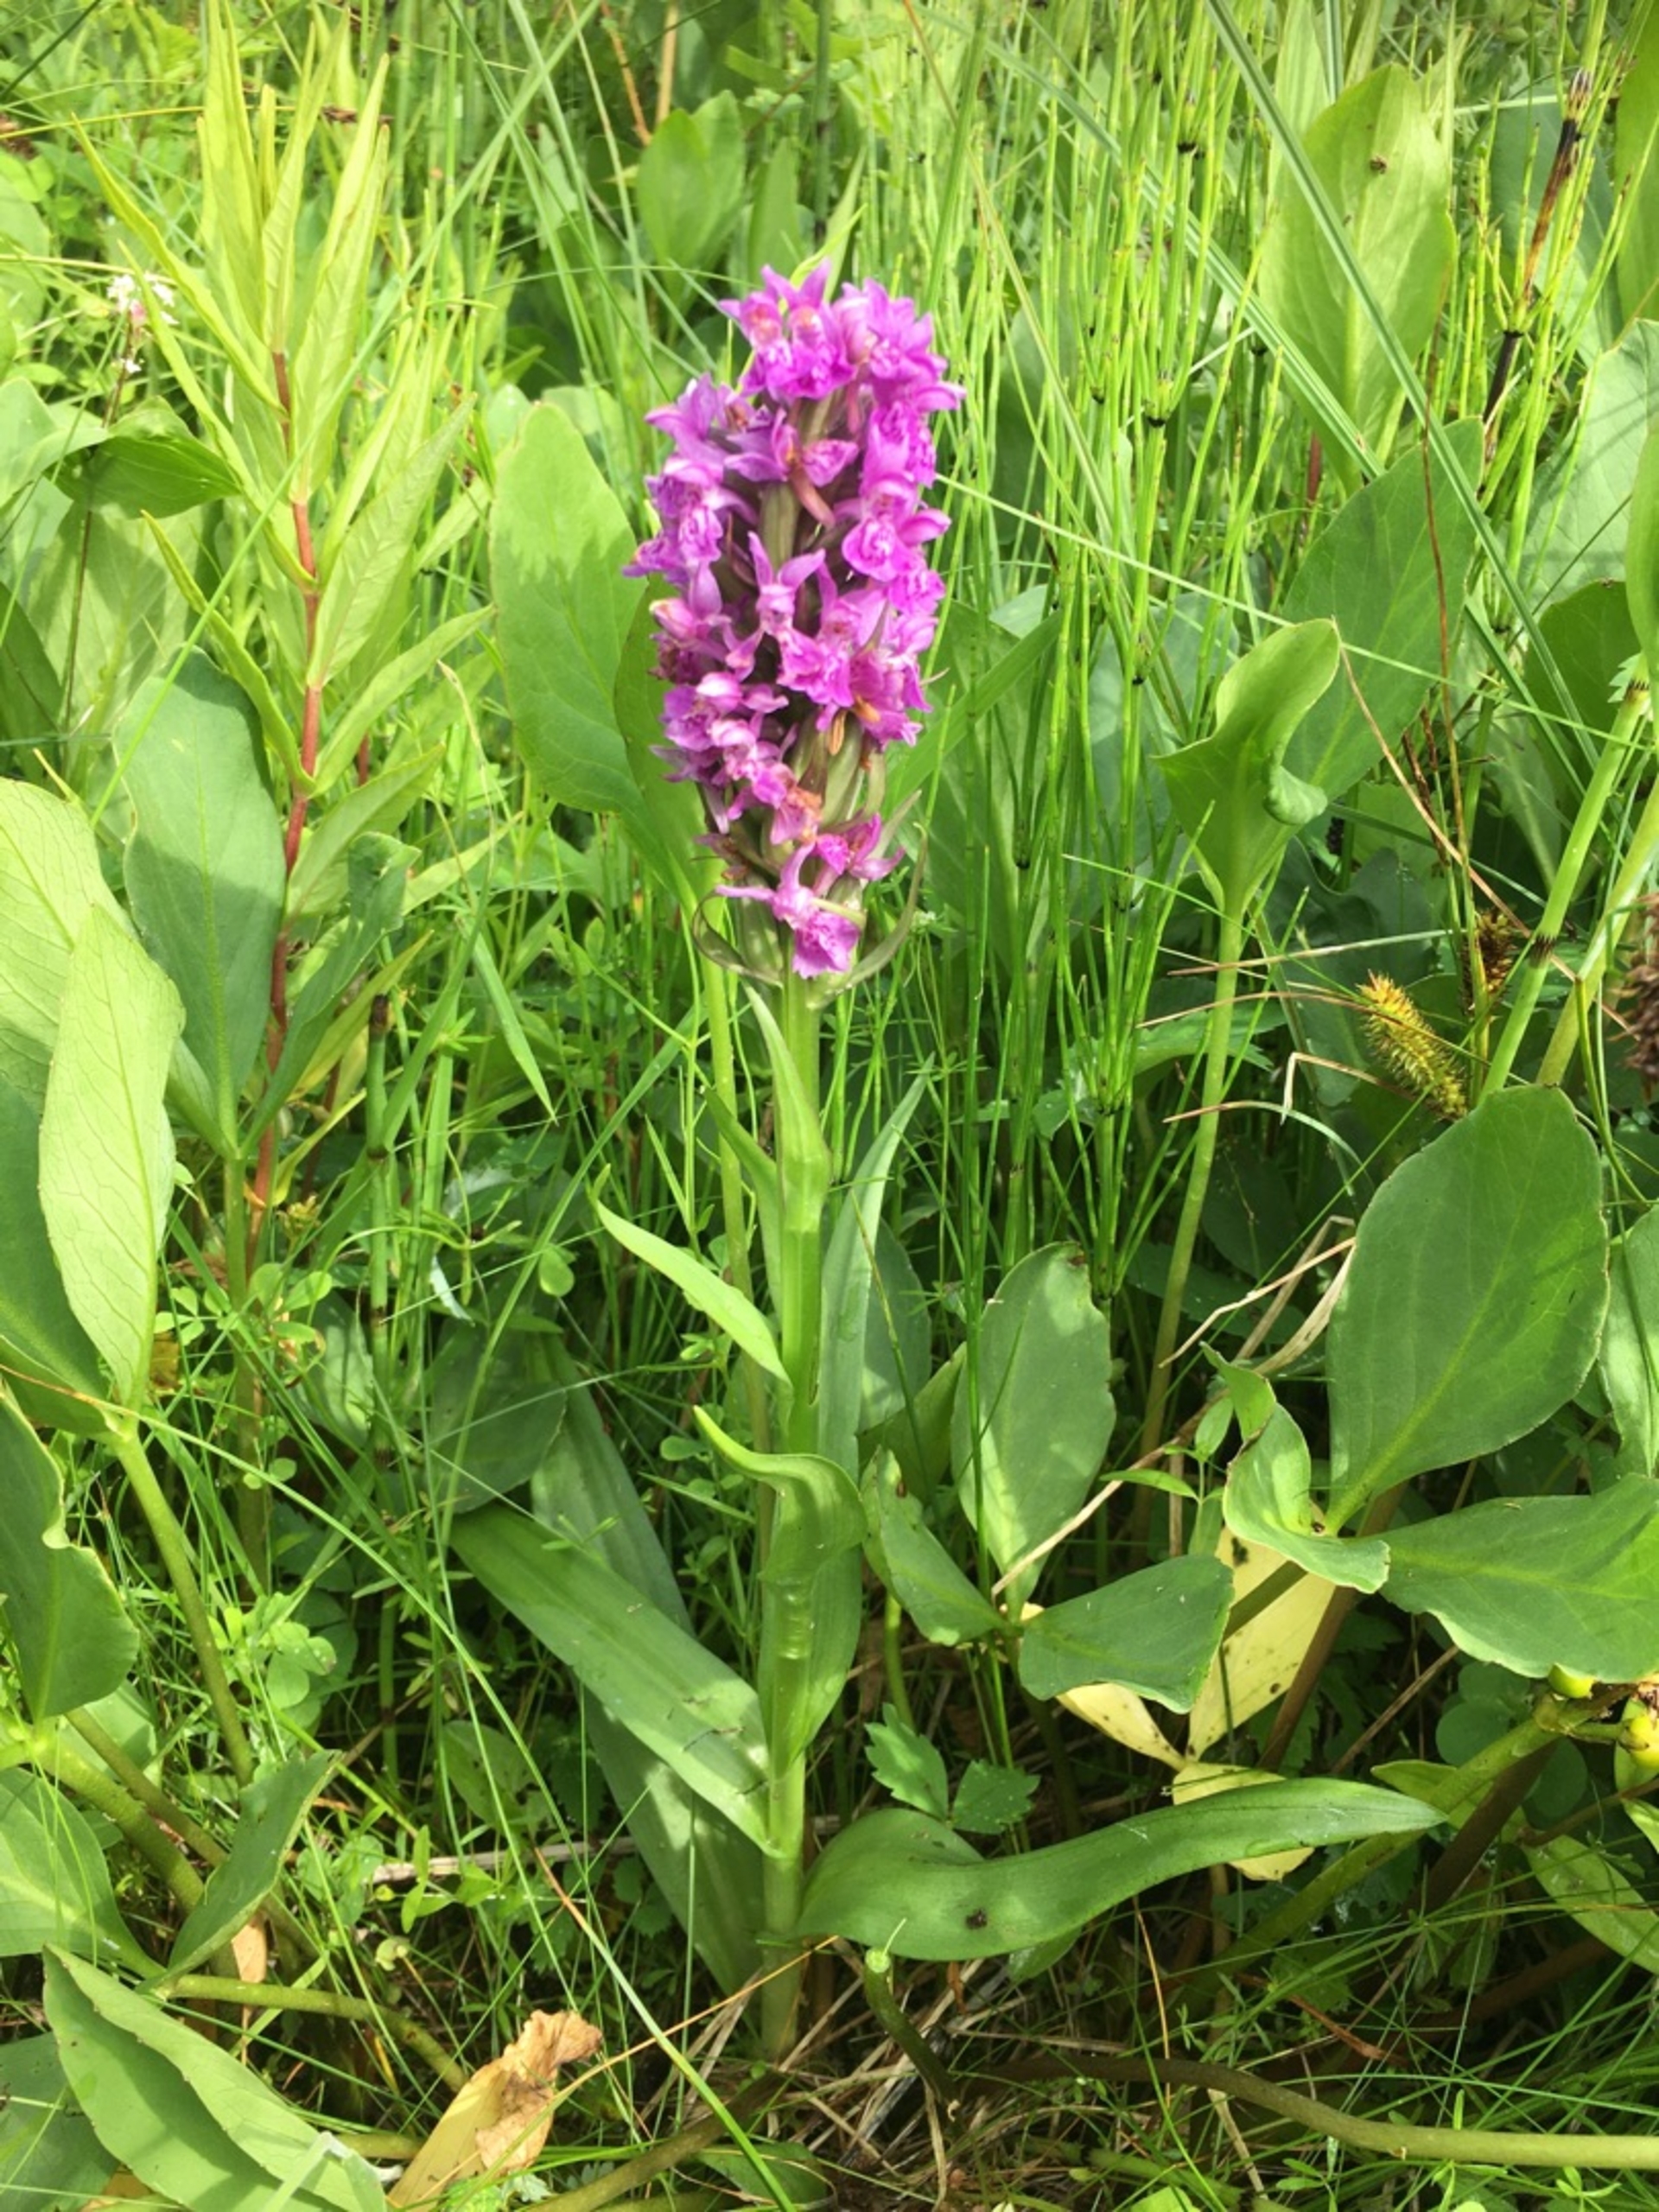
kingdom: Plantae
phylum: Tracheophyta
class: Liliopsida
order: Asparagales
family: Orchidaceae
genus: Dactylorhiza
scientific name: Dactylorhiza majalis
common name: Purpur-gøgeurt
